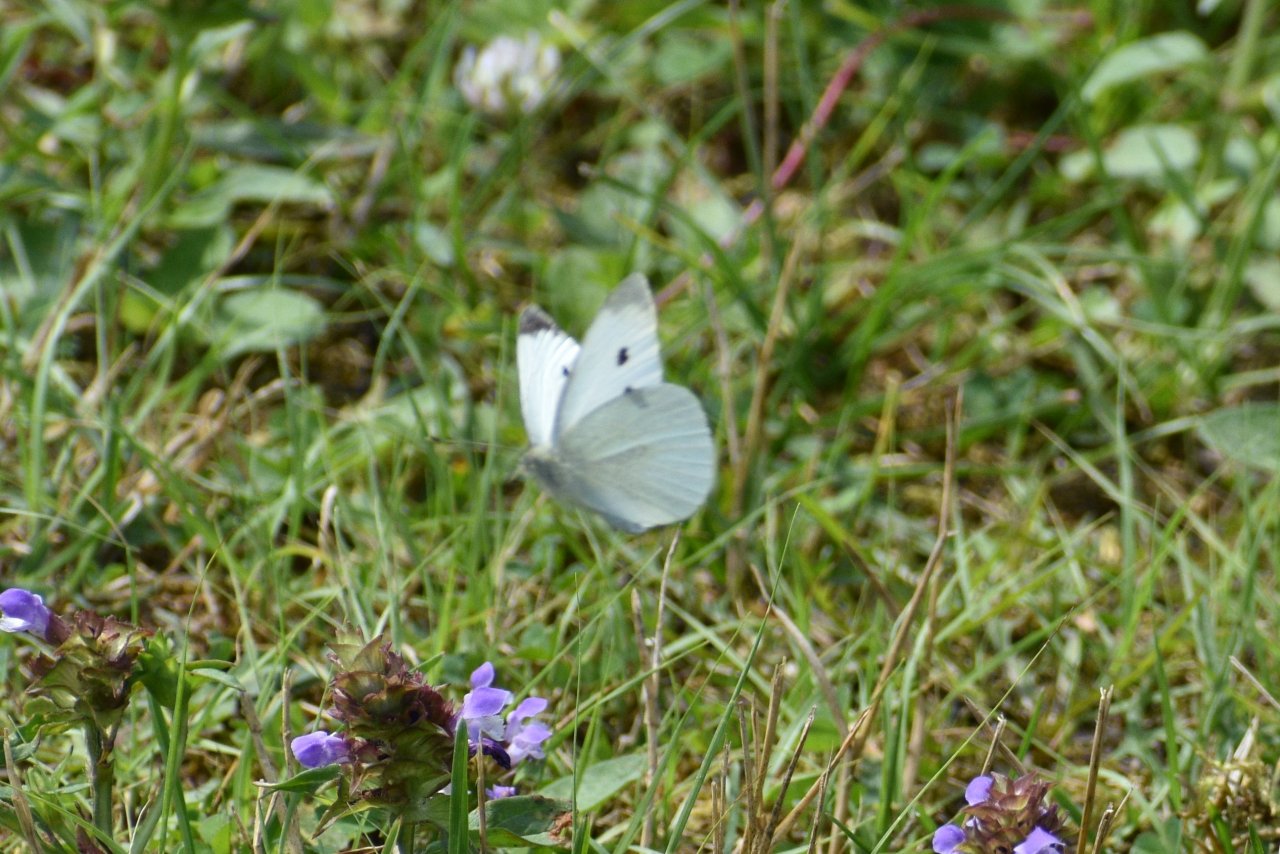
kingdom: Animalia
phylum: Arthropoda
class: Insecta
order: Lepidoptera
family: Pieridae
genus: Pieris
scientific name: Pieris rapae
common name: Cabbage White
